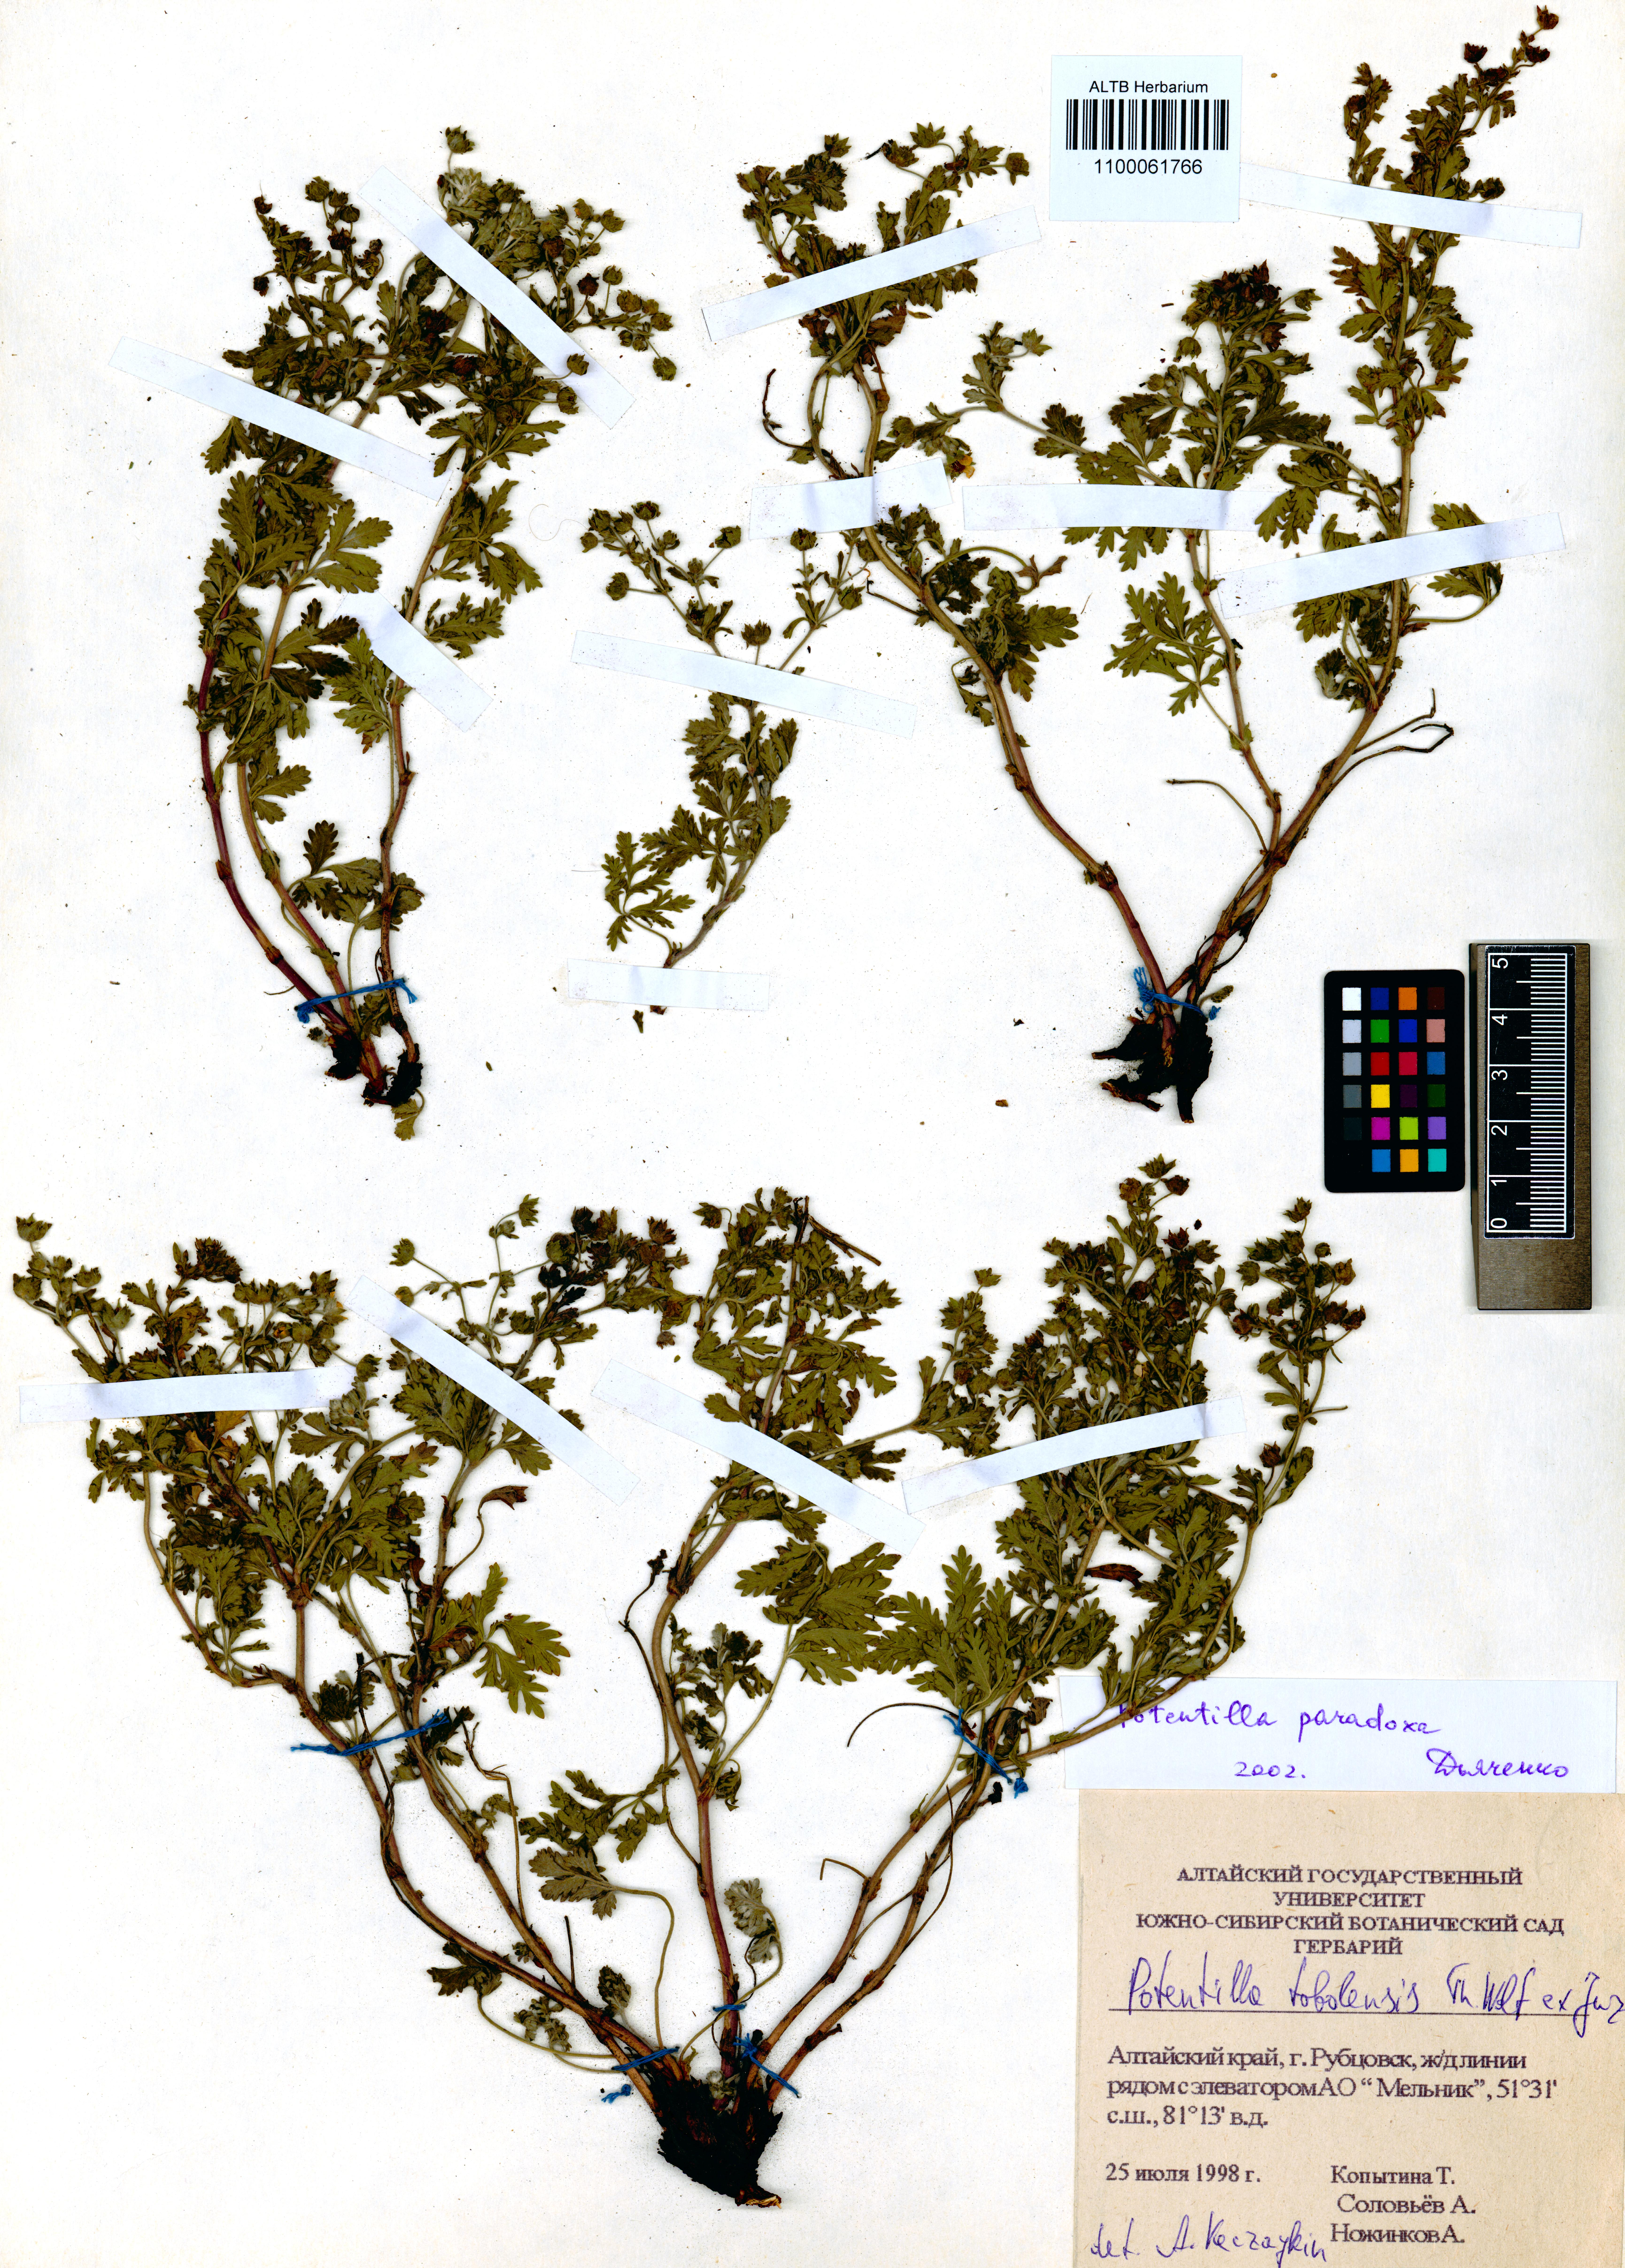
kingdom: Plantae
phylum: Tracheophyta
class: Magnoliopsida
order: Rosales
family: Rosaceae
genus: Potentilla
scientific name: Potentilla tobolensis
